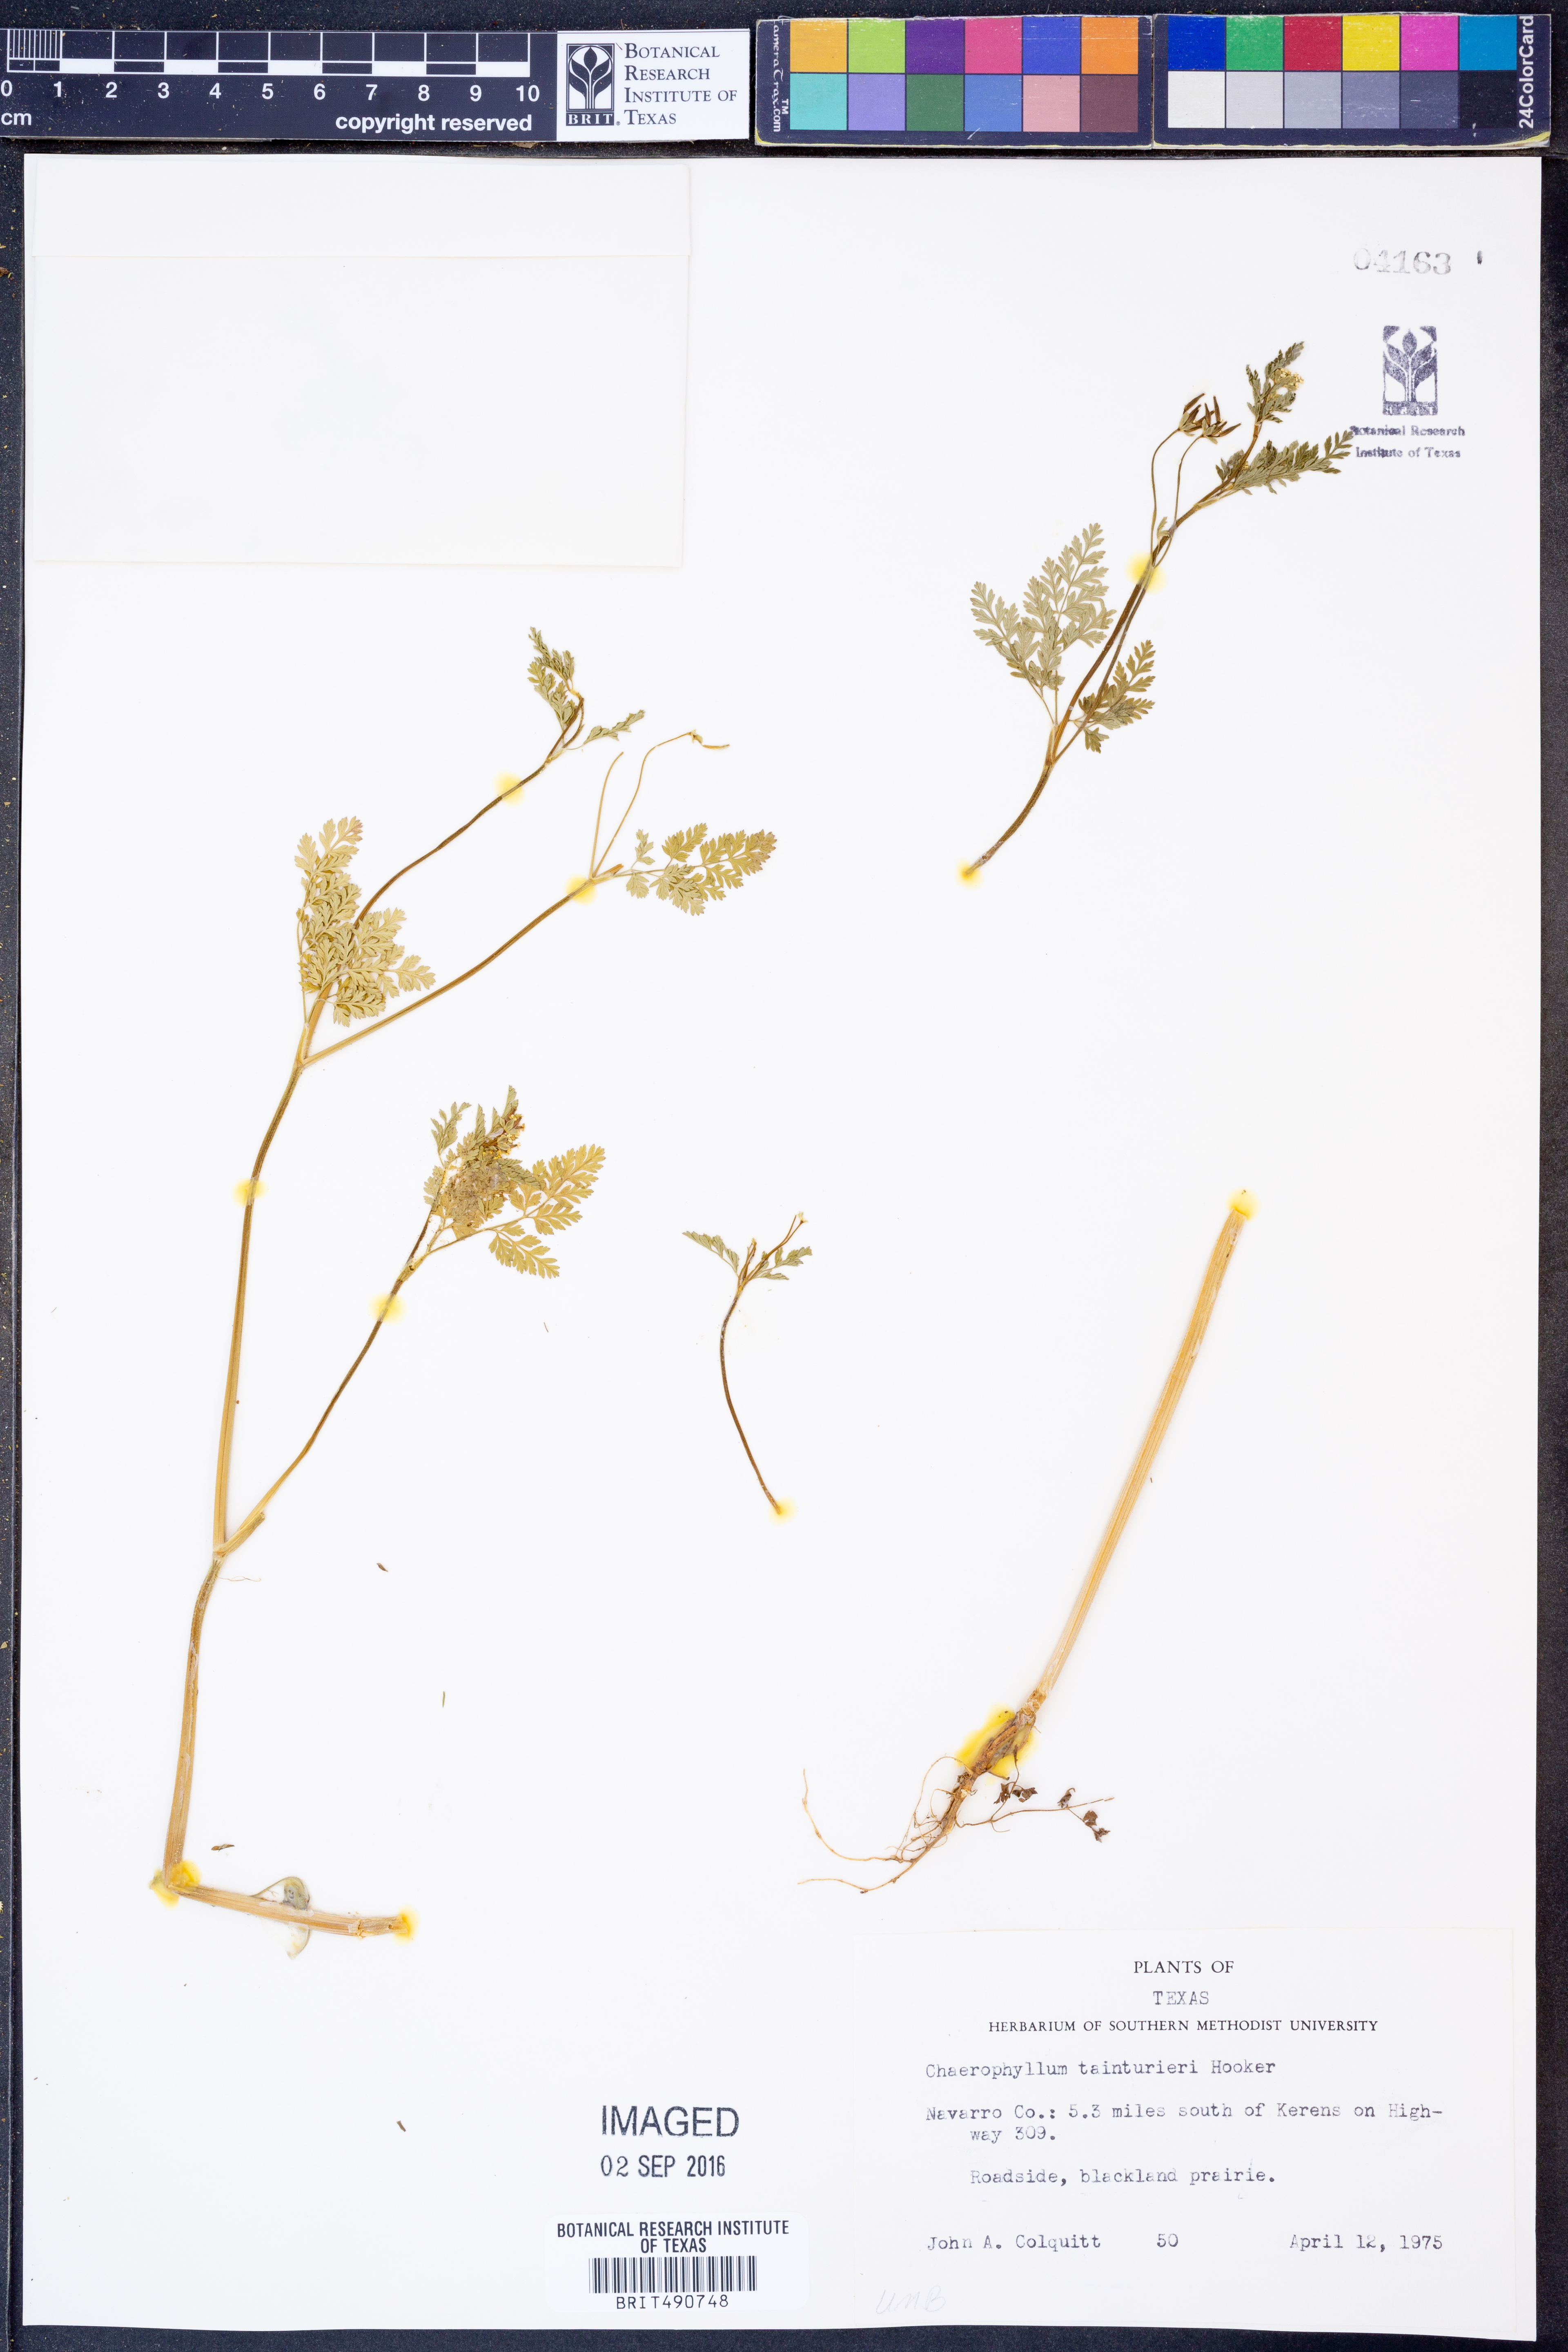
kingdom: Plantae
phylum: Tracheophyta
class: Magnoliopsida
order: Apiales
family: Apiaceae
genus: Chaerophyllum
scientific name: Chaerophyllum tainturieri
